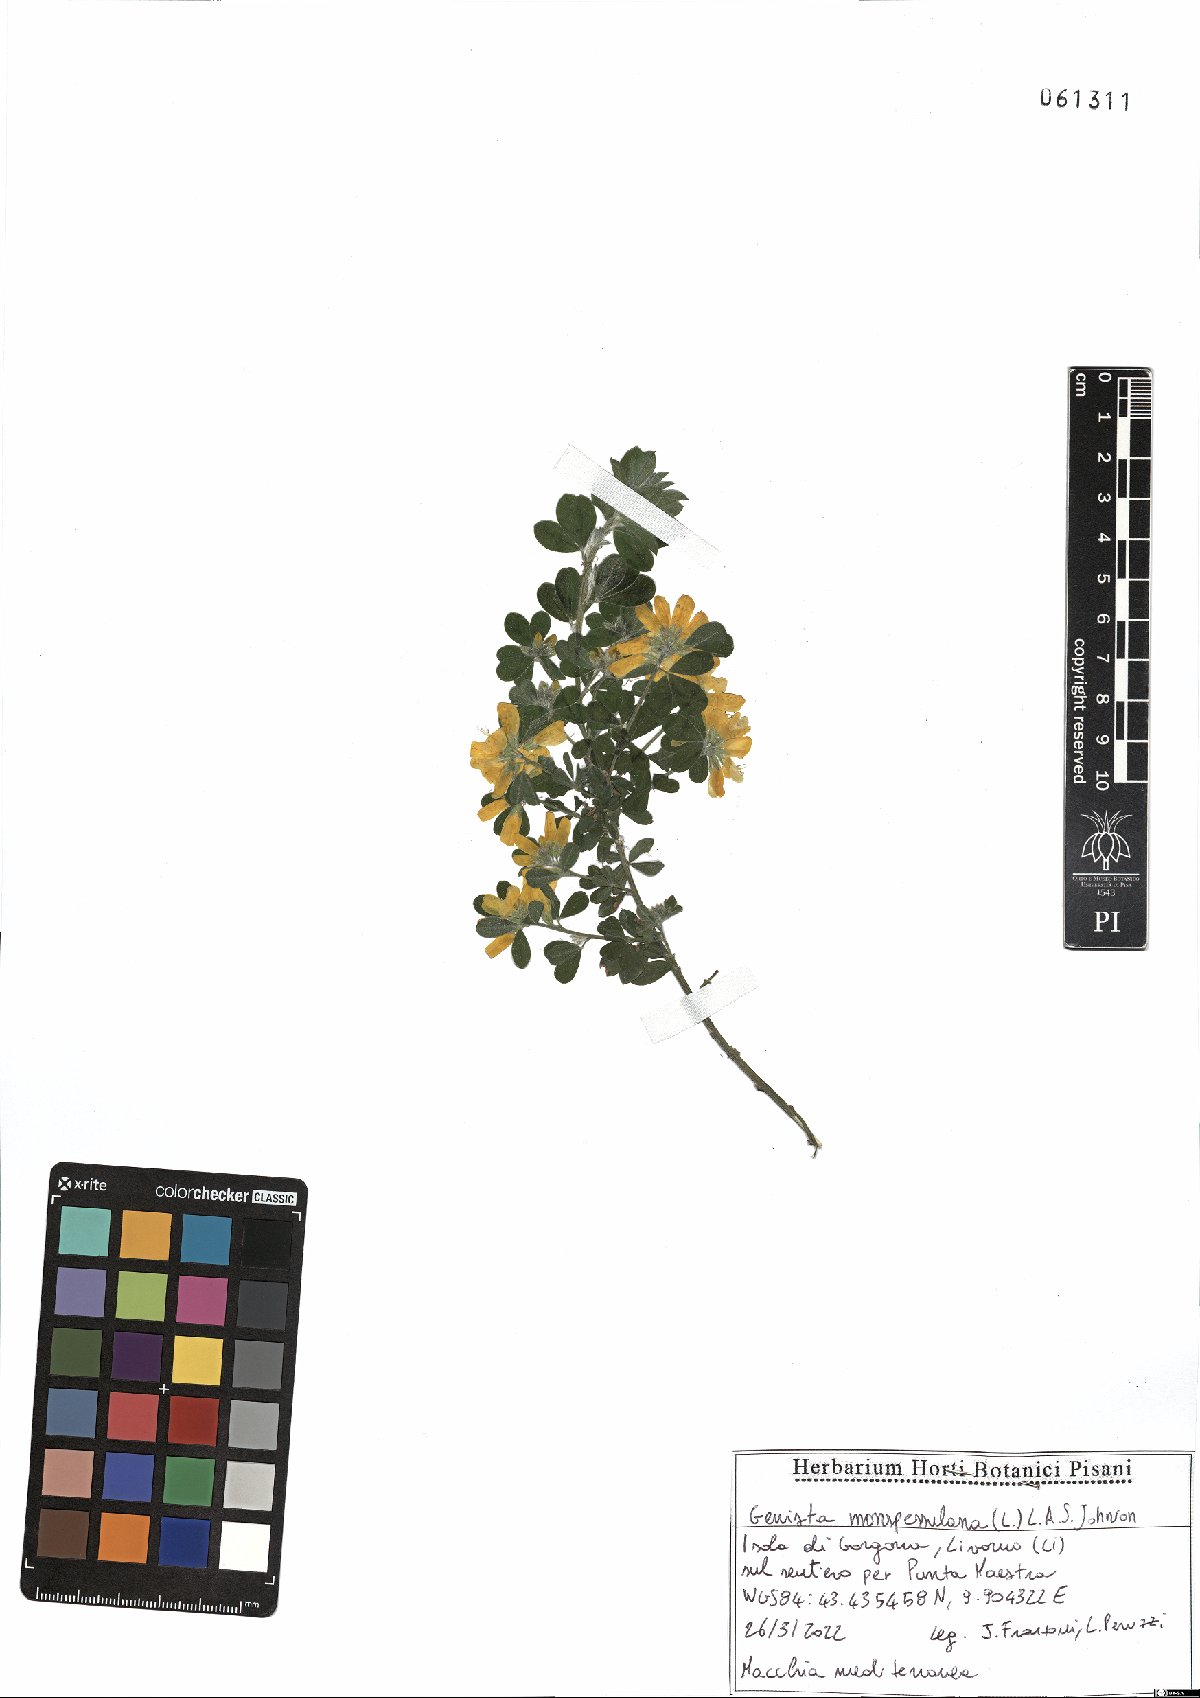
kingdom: Plantae
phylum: Tracheophyta
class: Magnoliopsida
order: Fabales
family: Fabaceae
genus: Genista
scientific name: Genista monspessulana
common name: Montpellier broom
